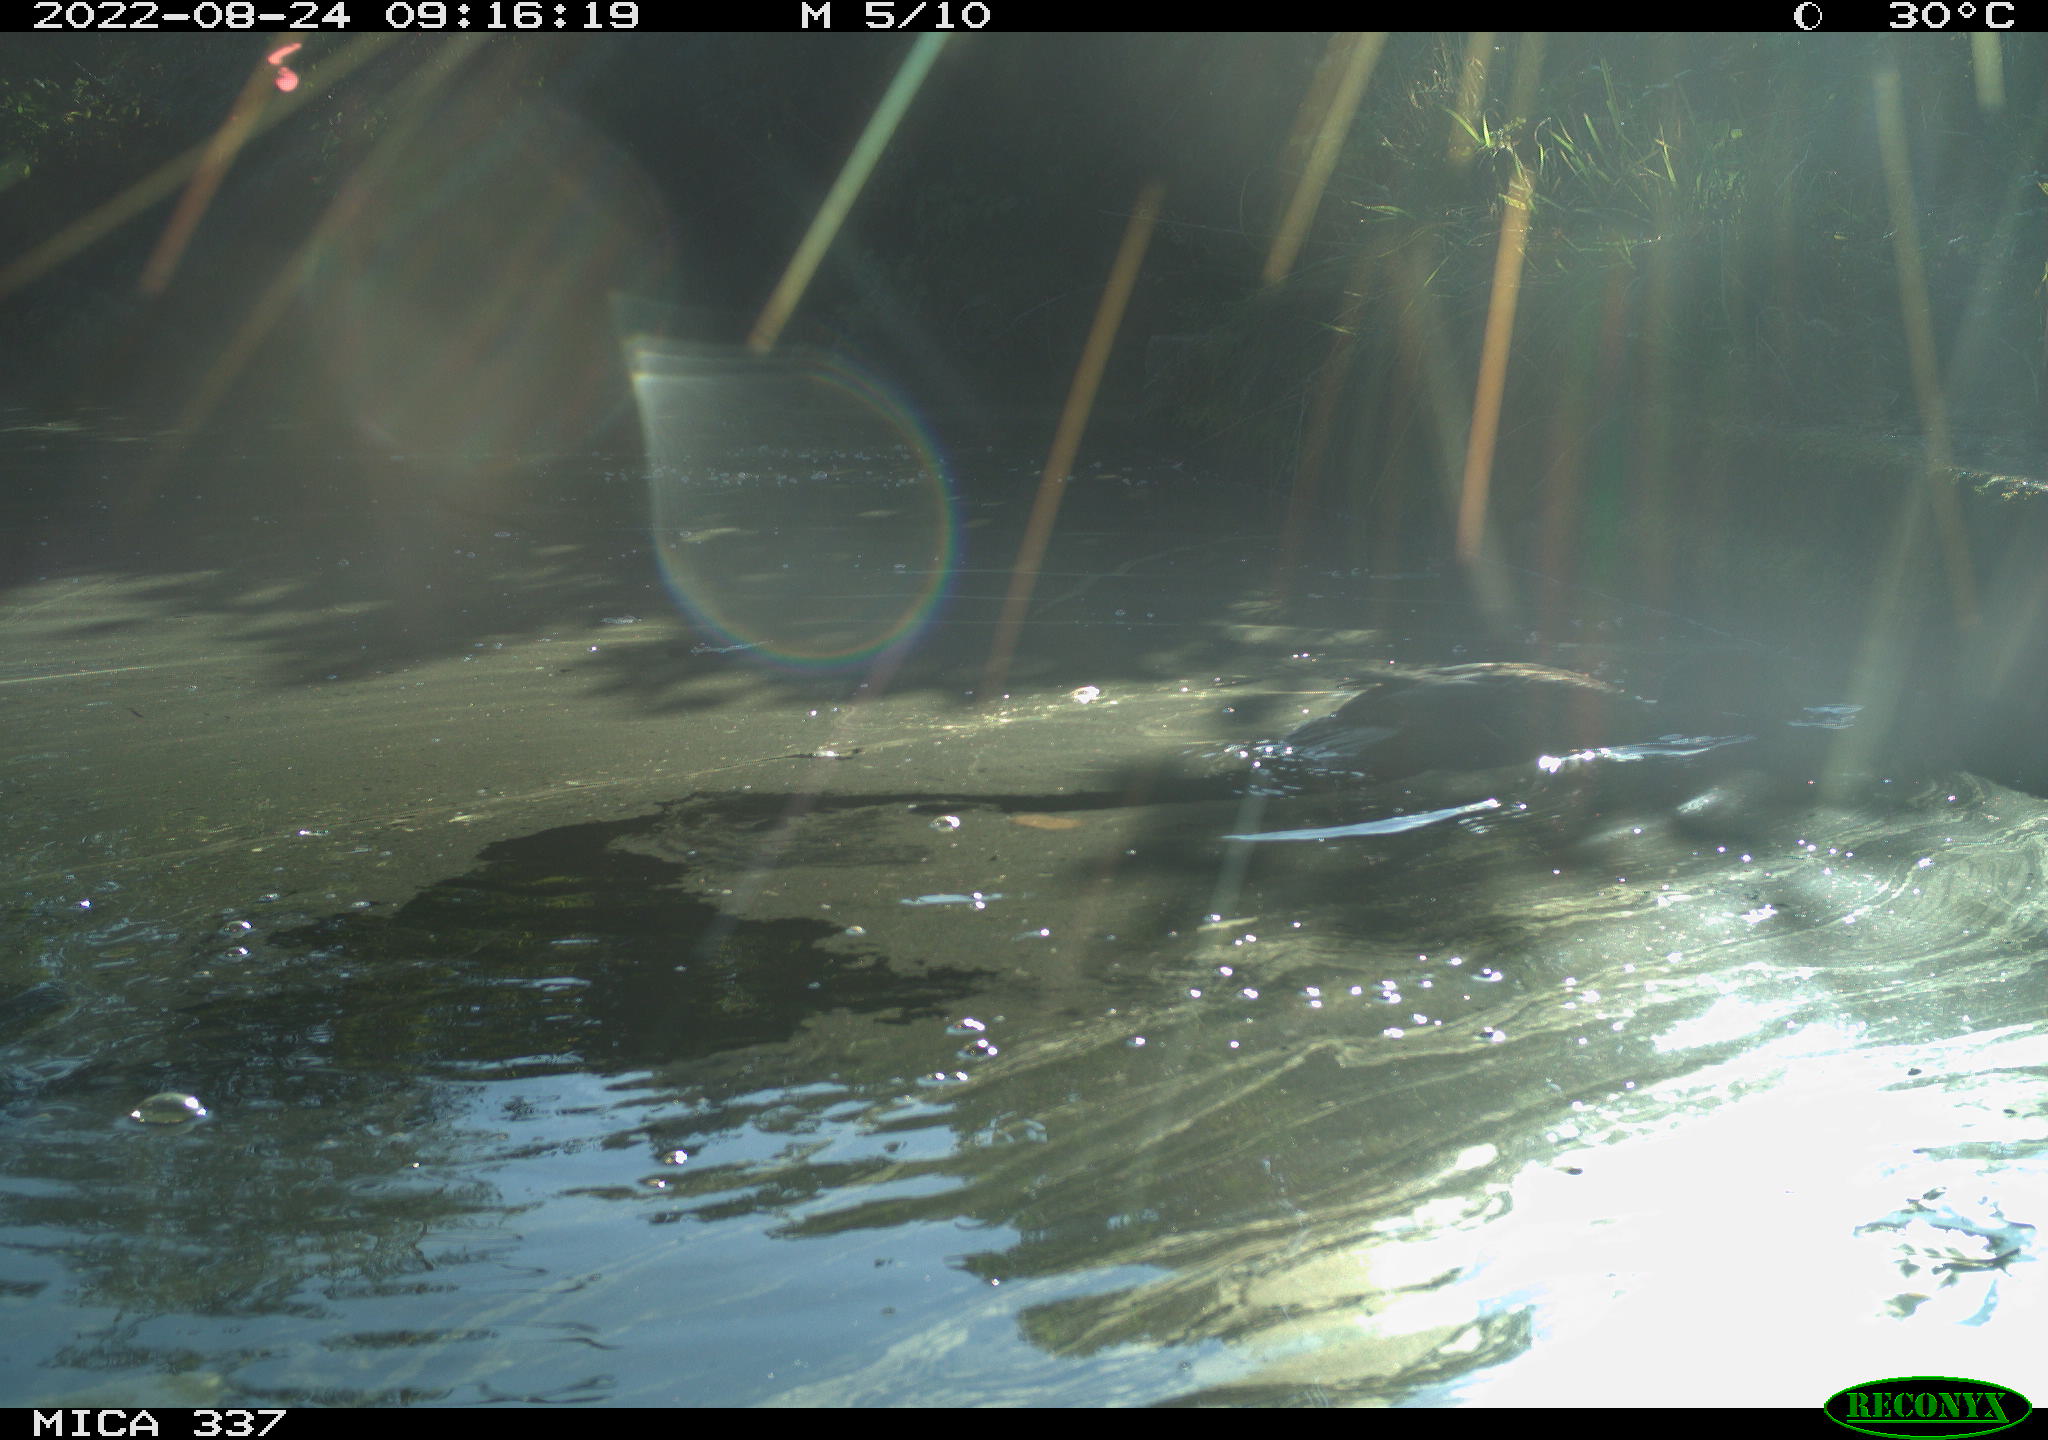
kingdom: Animalia
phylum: Chordata
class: Aves
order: Anseriformes
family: Anatidae
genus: Anas
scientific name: Anas platyrhynchos
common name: Mallard
